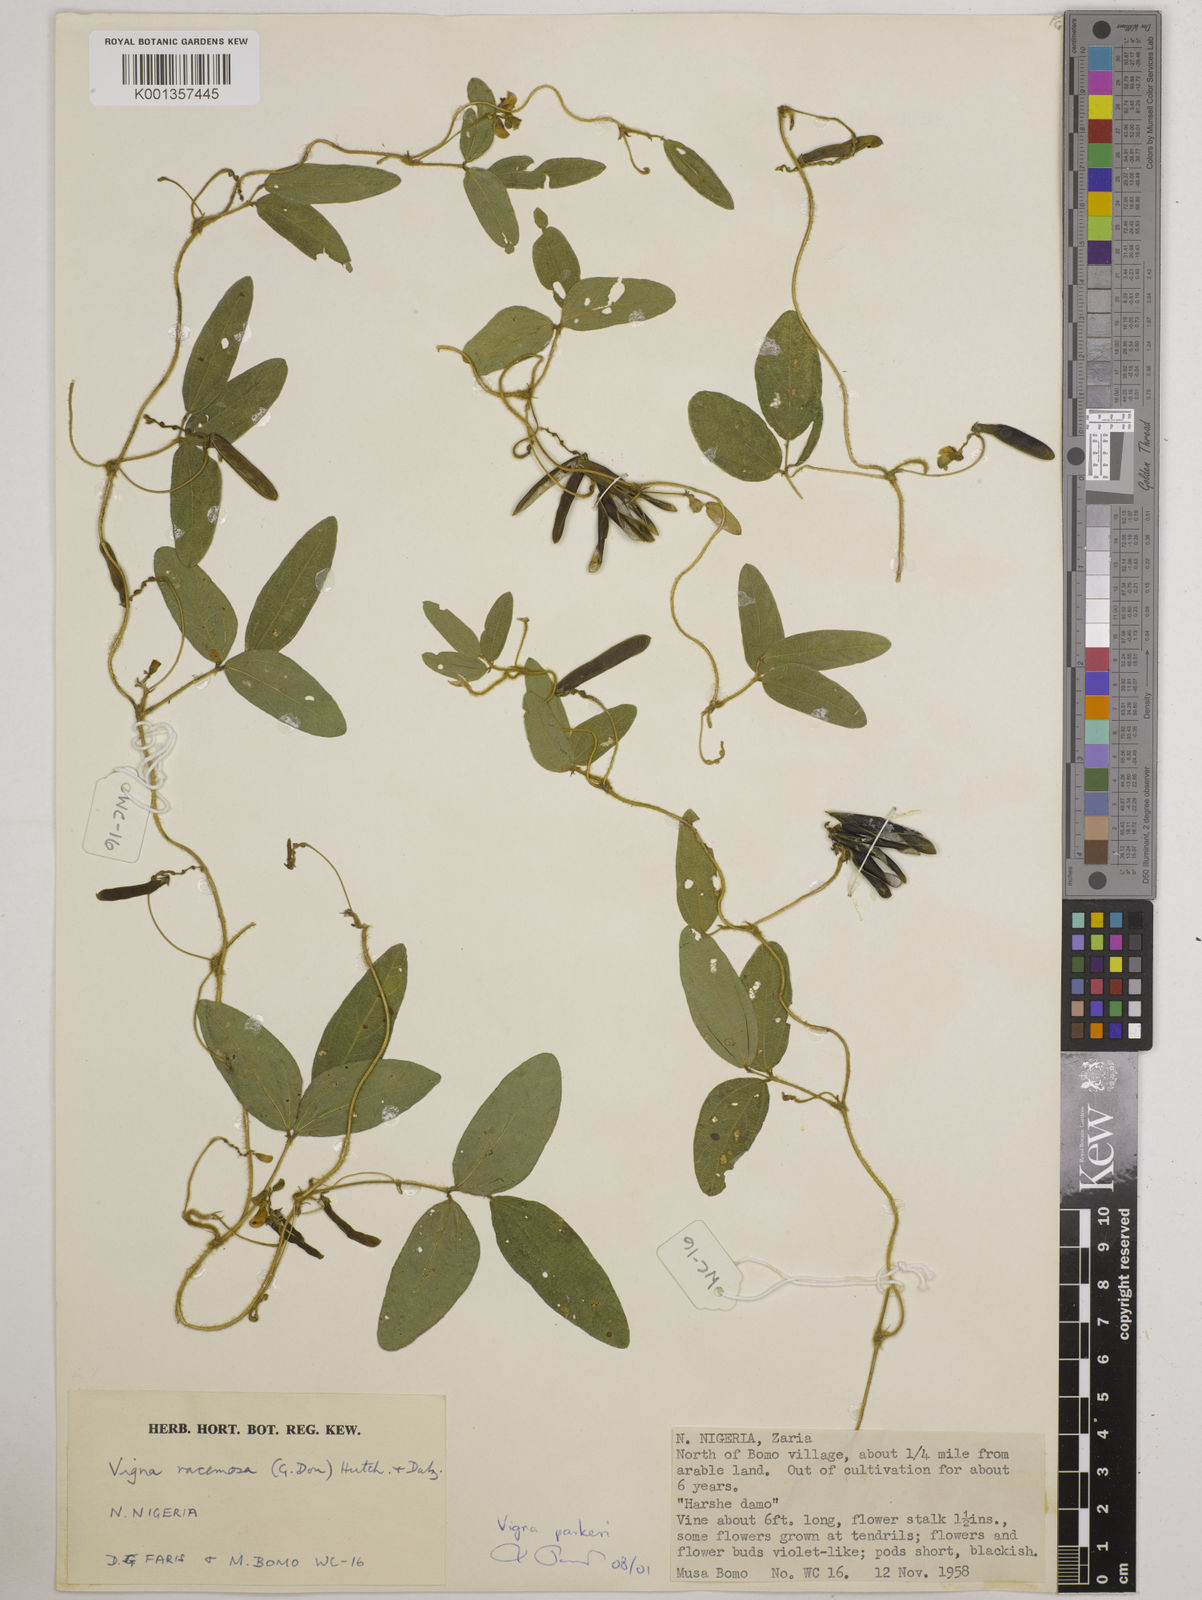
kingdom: Plantae
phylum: Tracheophyta
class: Magnoliopsida
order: Fabales
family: Fabaceae
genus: Vigna
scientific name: Vigna parkeri
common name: Creeping vigna
